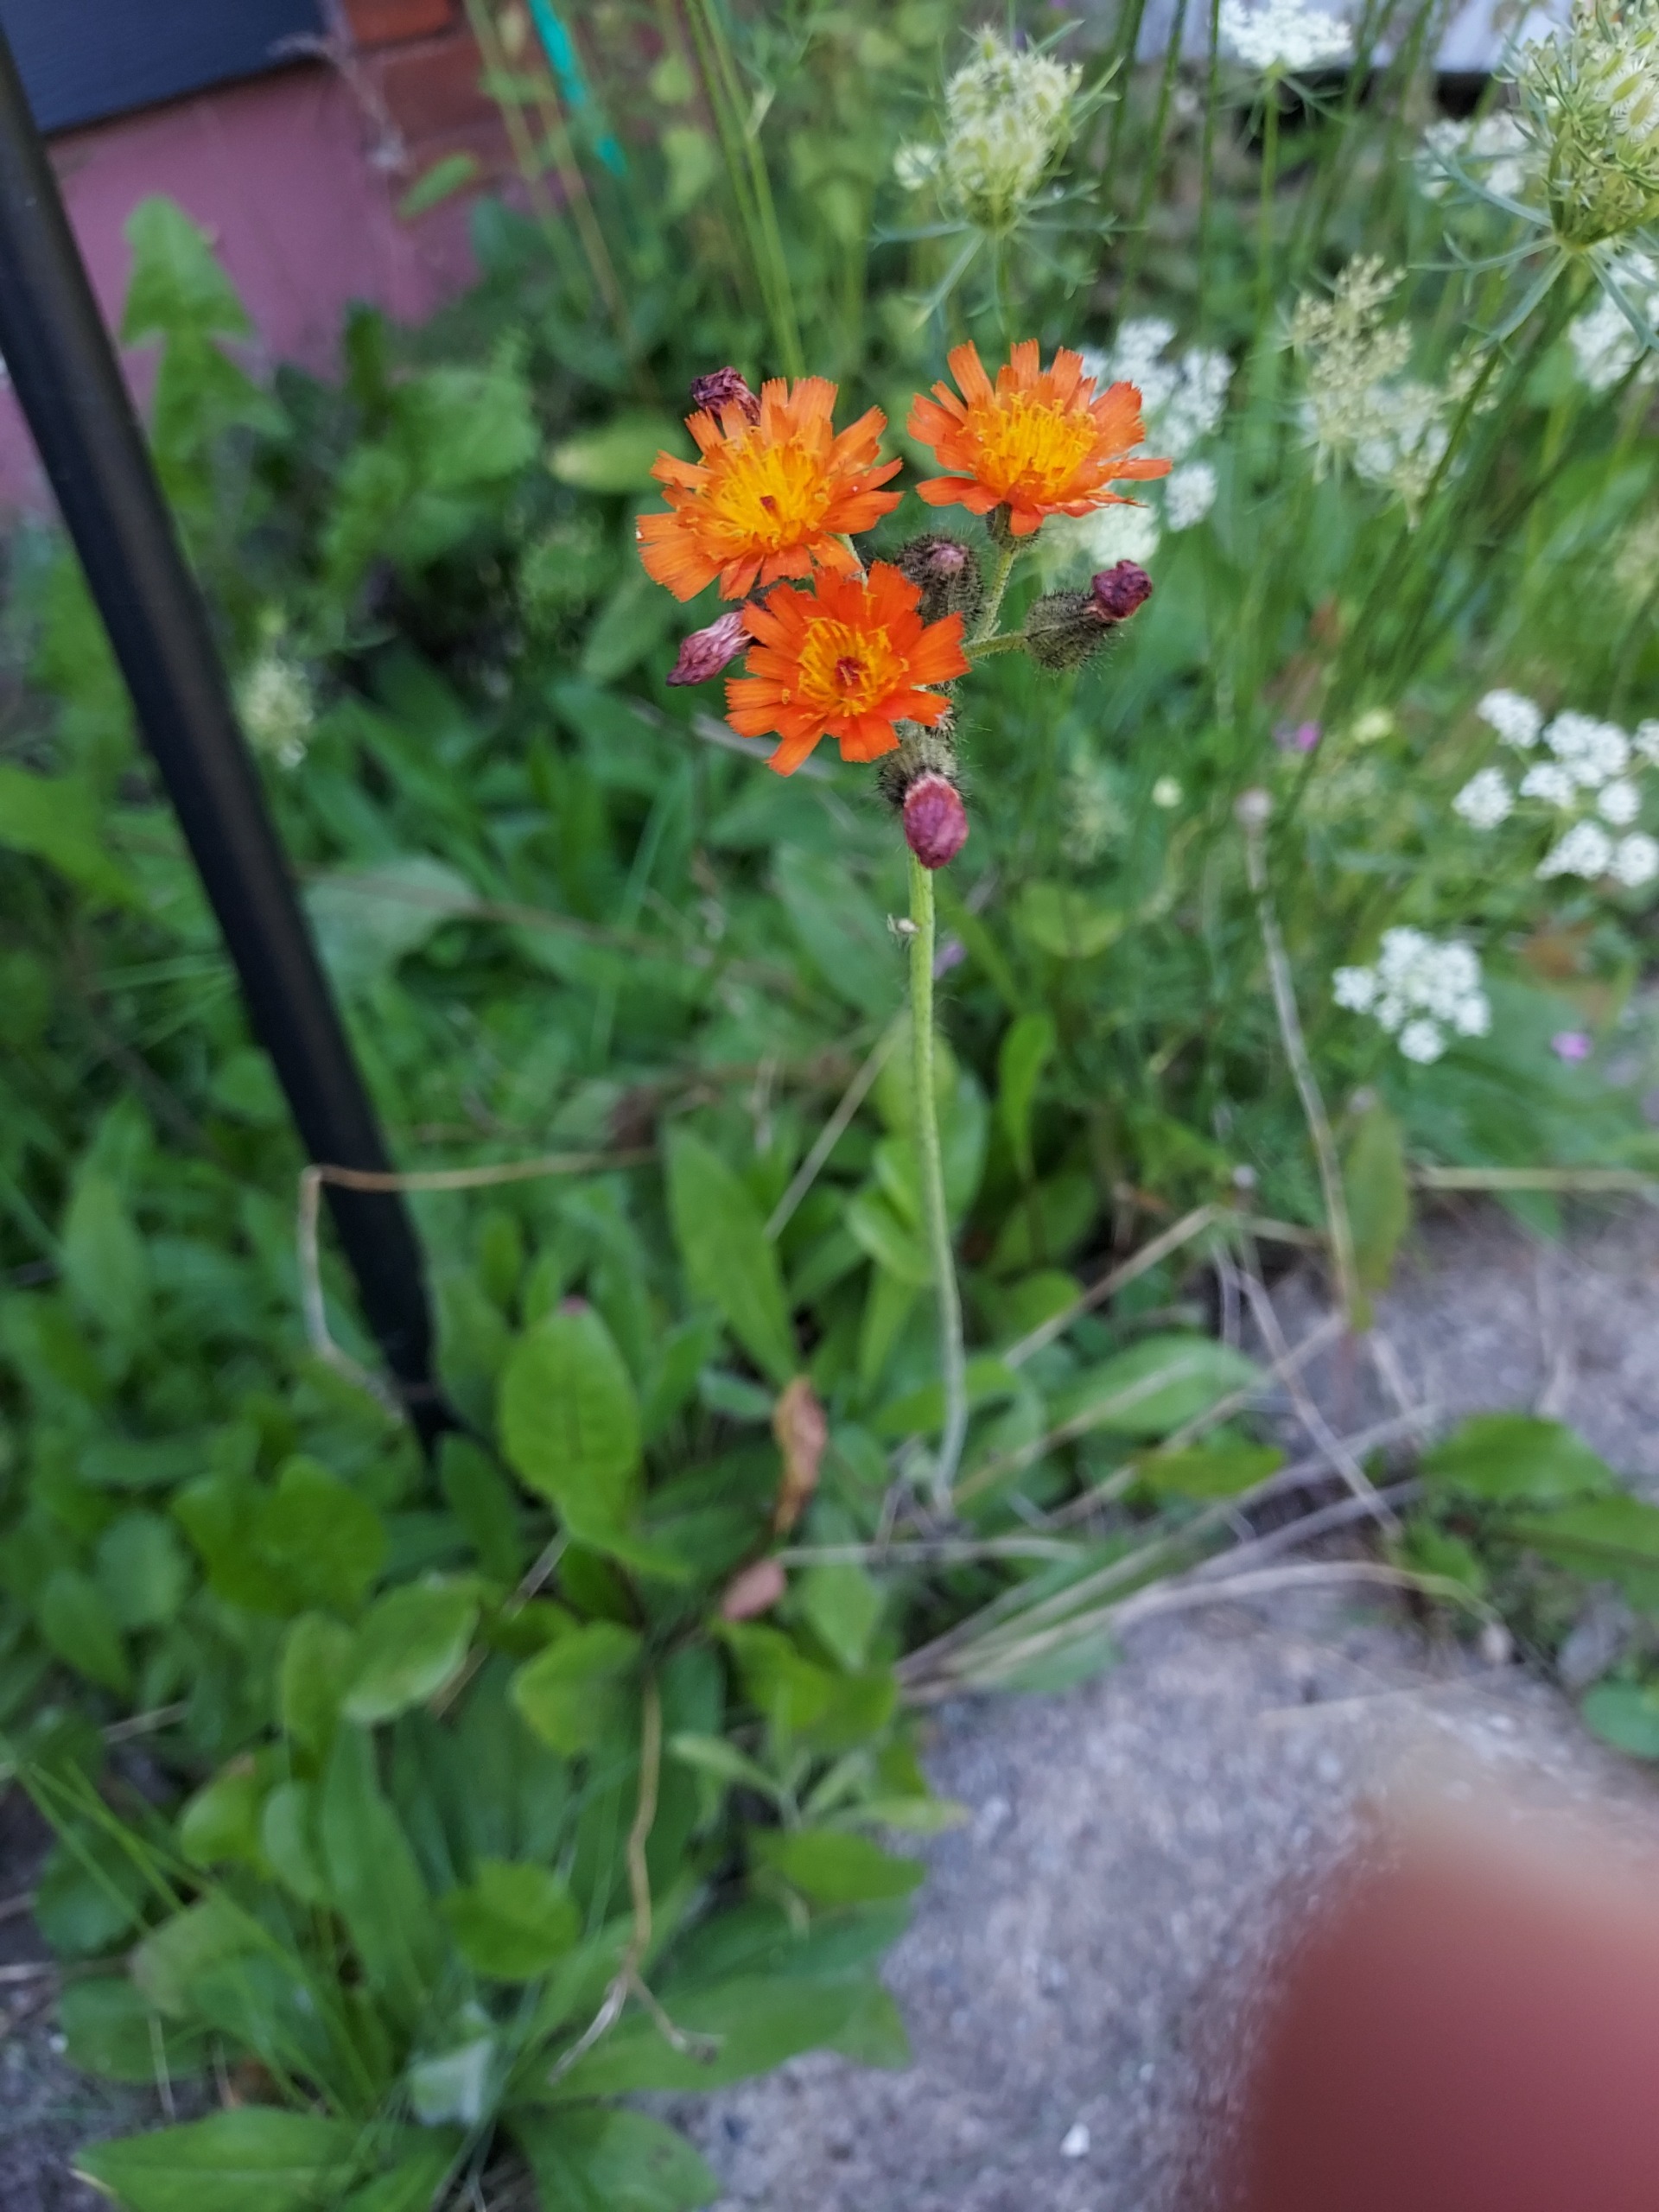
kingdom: Plantae
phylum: Tracheophyta
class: Magnoliopsida
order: Asterales
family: Asteraceae
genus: Pilosella
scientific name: Pilosella aurantiaca
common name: Pomerans-høgeurt
